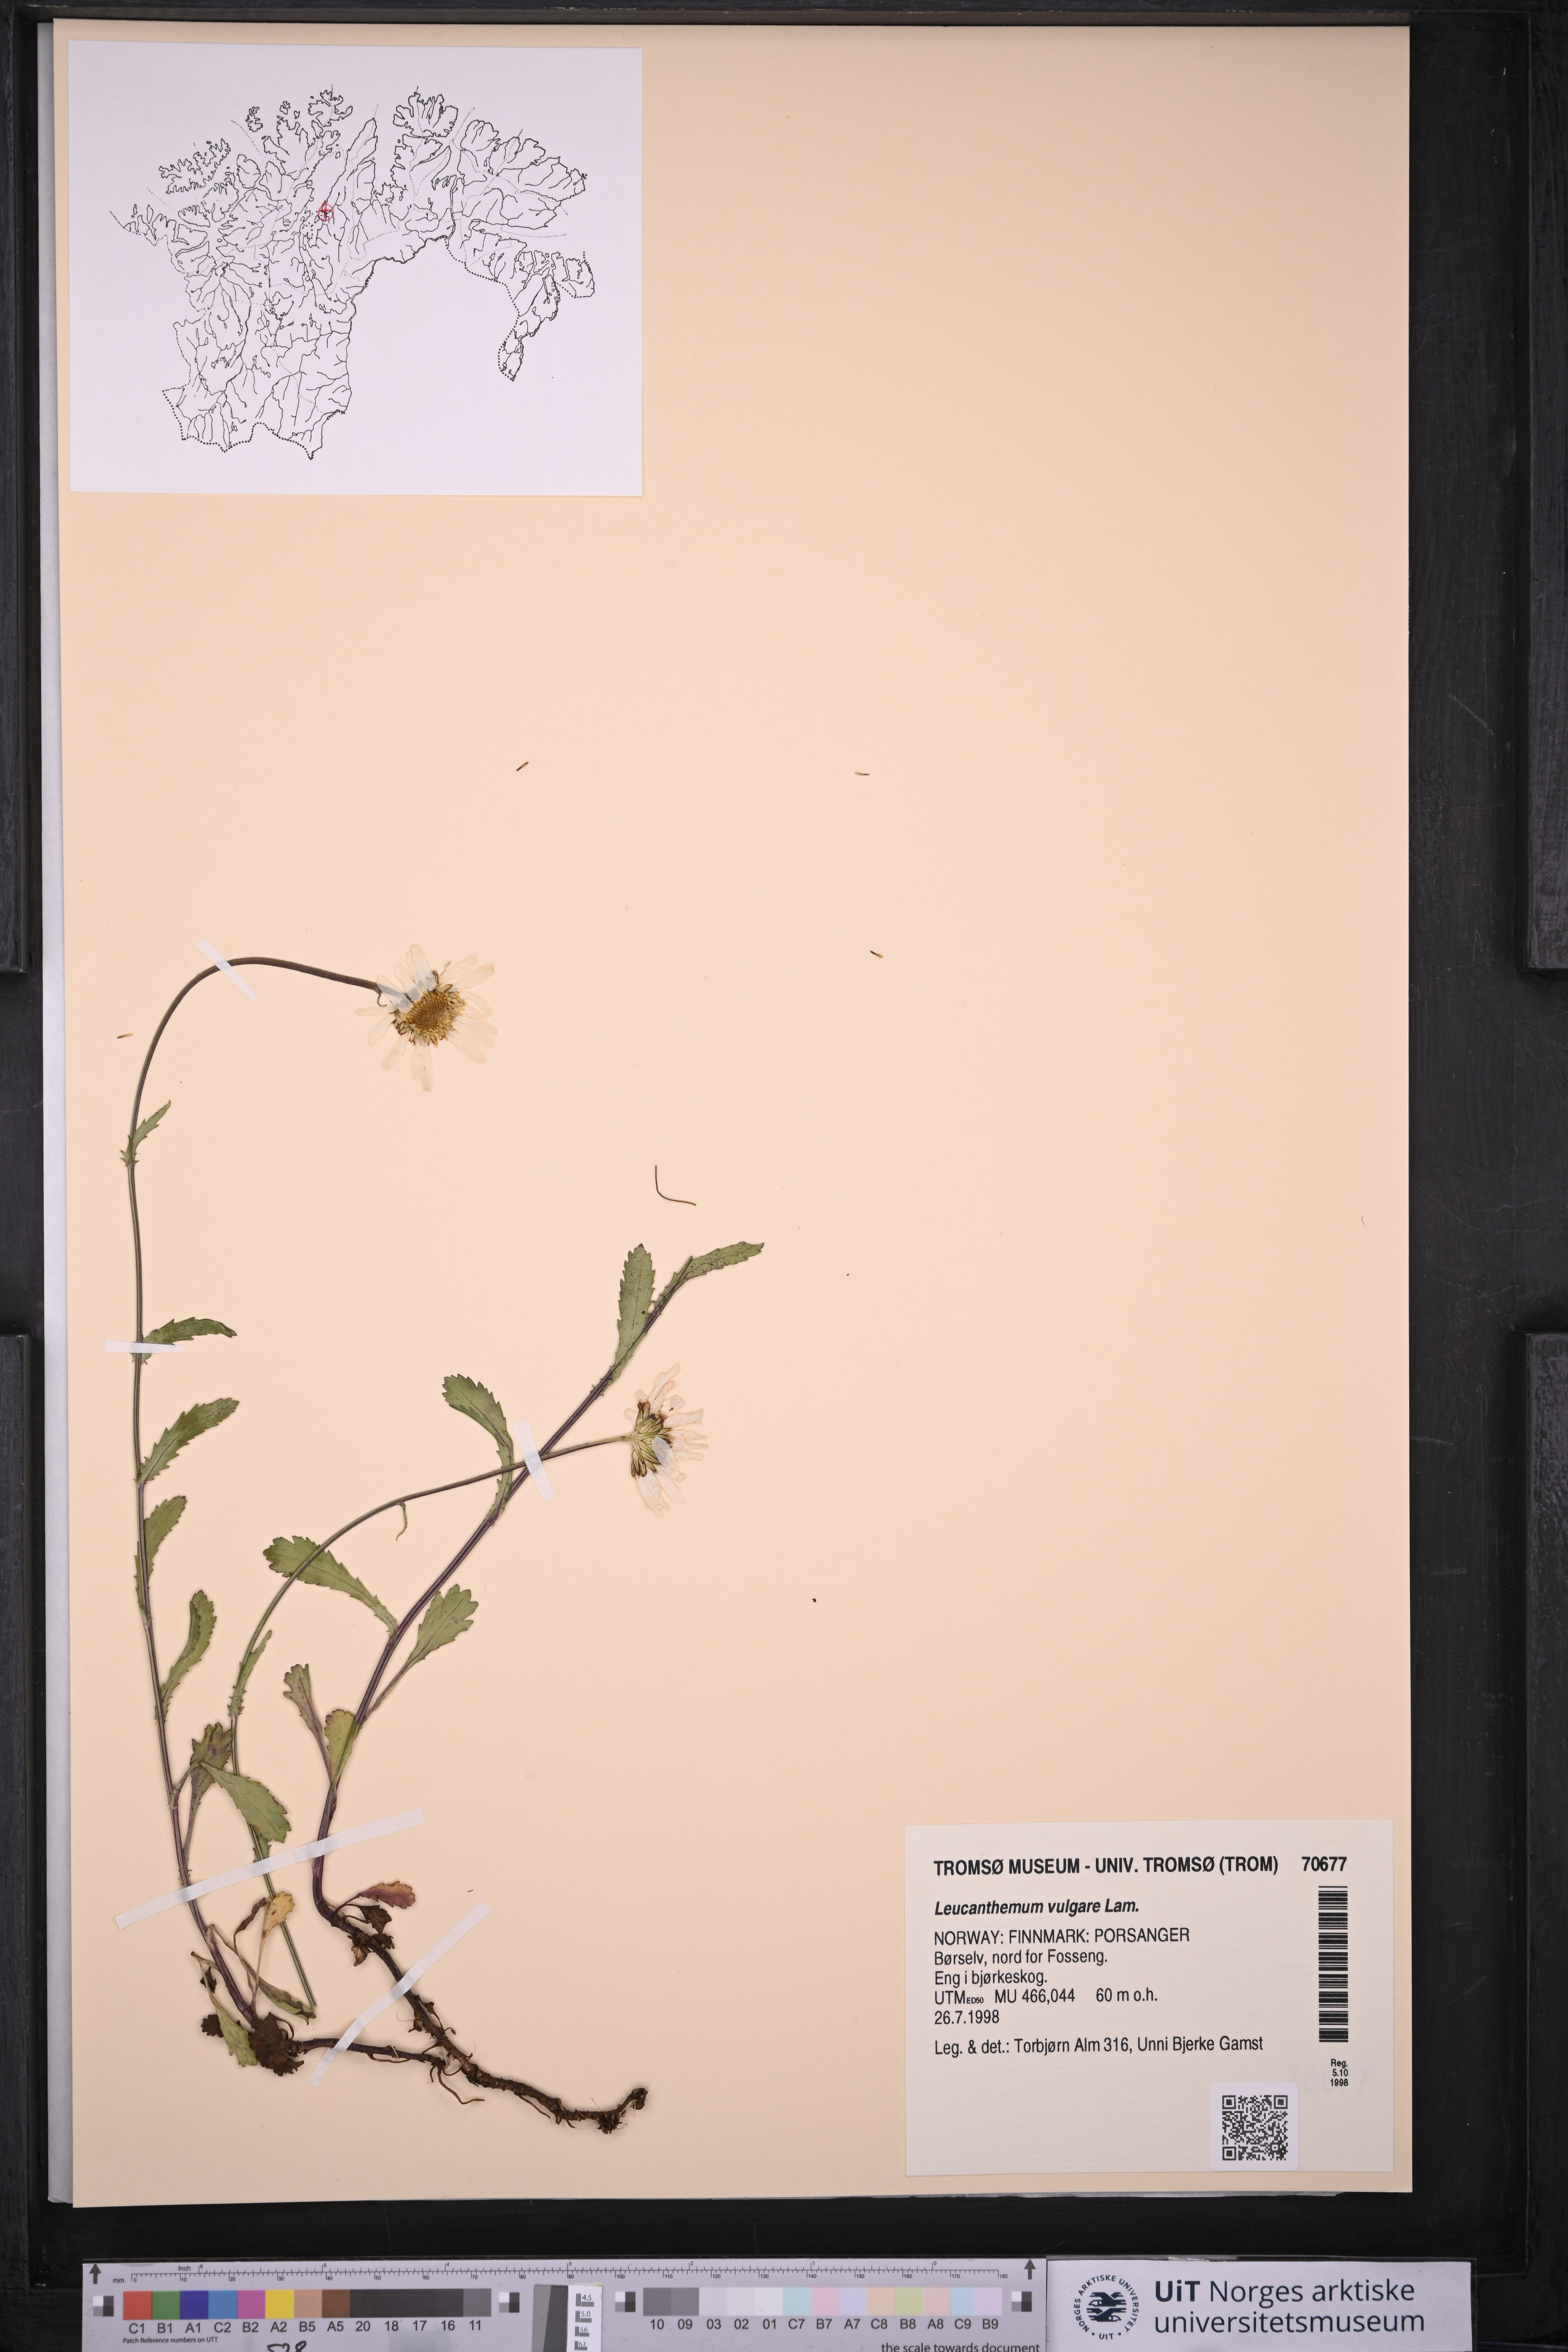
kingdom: Plantae
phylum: Tracheophyta
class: Magnoliopsida
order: Asterales
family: Asteraceae
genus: Leucanthemum
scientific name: Leucanthemum vulgare
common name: Oxeye daisy
